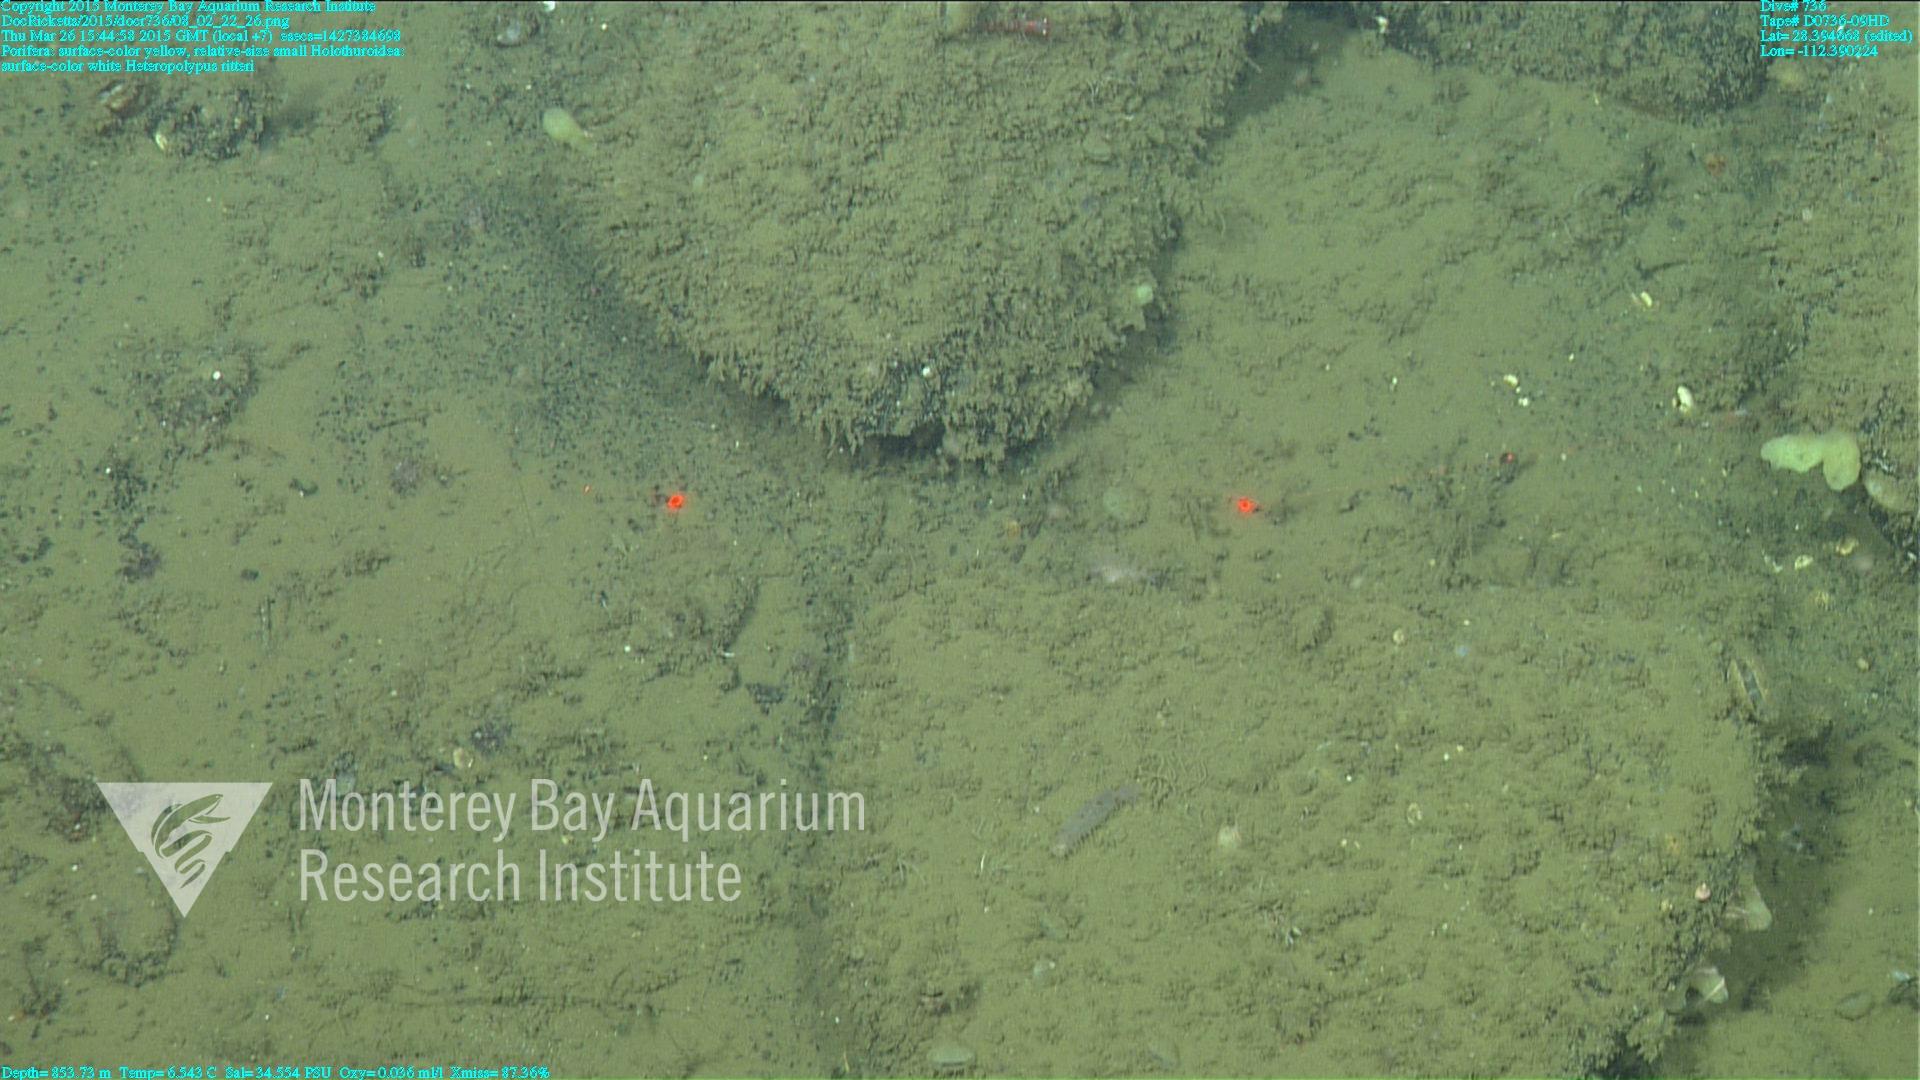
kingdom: Animalia
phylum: Cnidaria
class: Anthozoa
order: Scleralcyonacea
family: Coralliidae
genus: Heteropolypus
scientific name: Heteropolypus ritteri
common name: Ritter's soft coral
